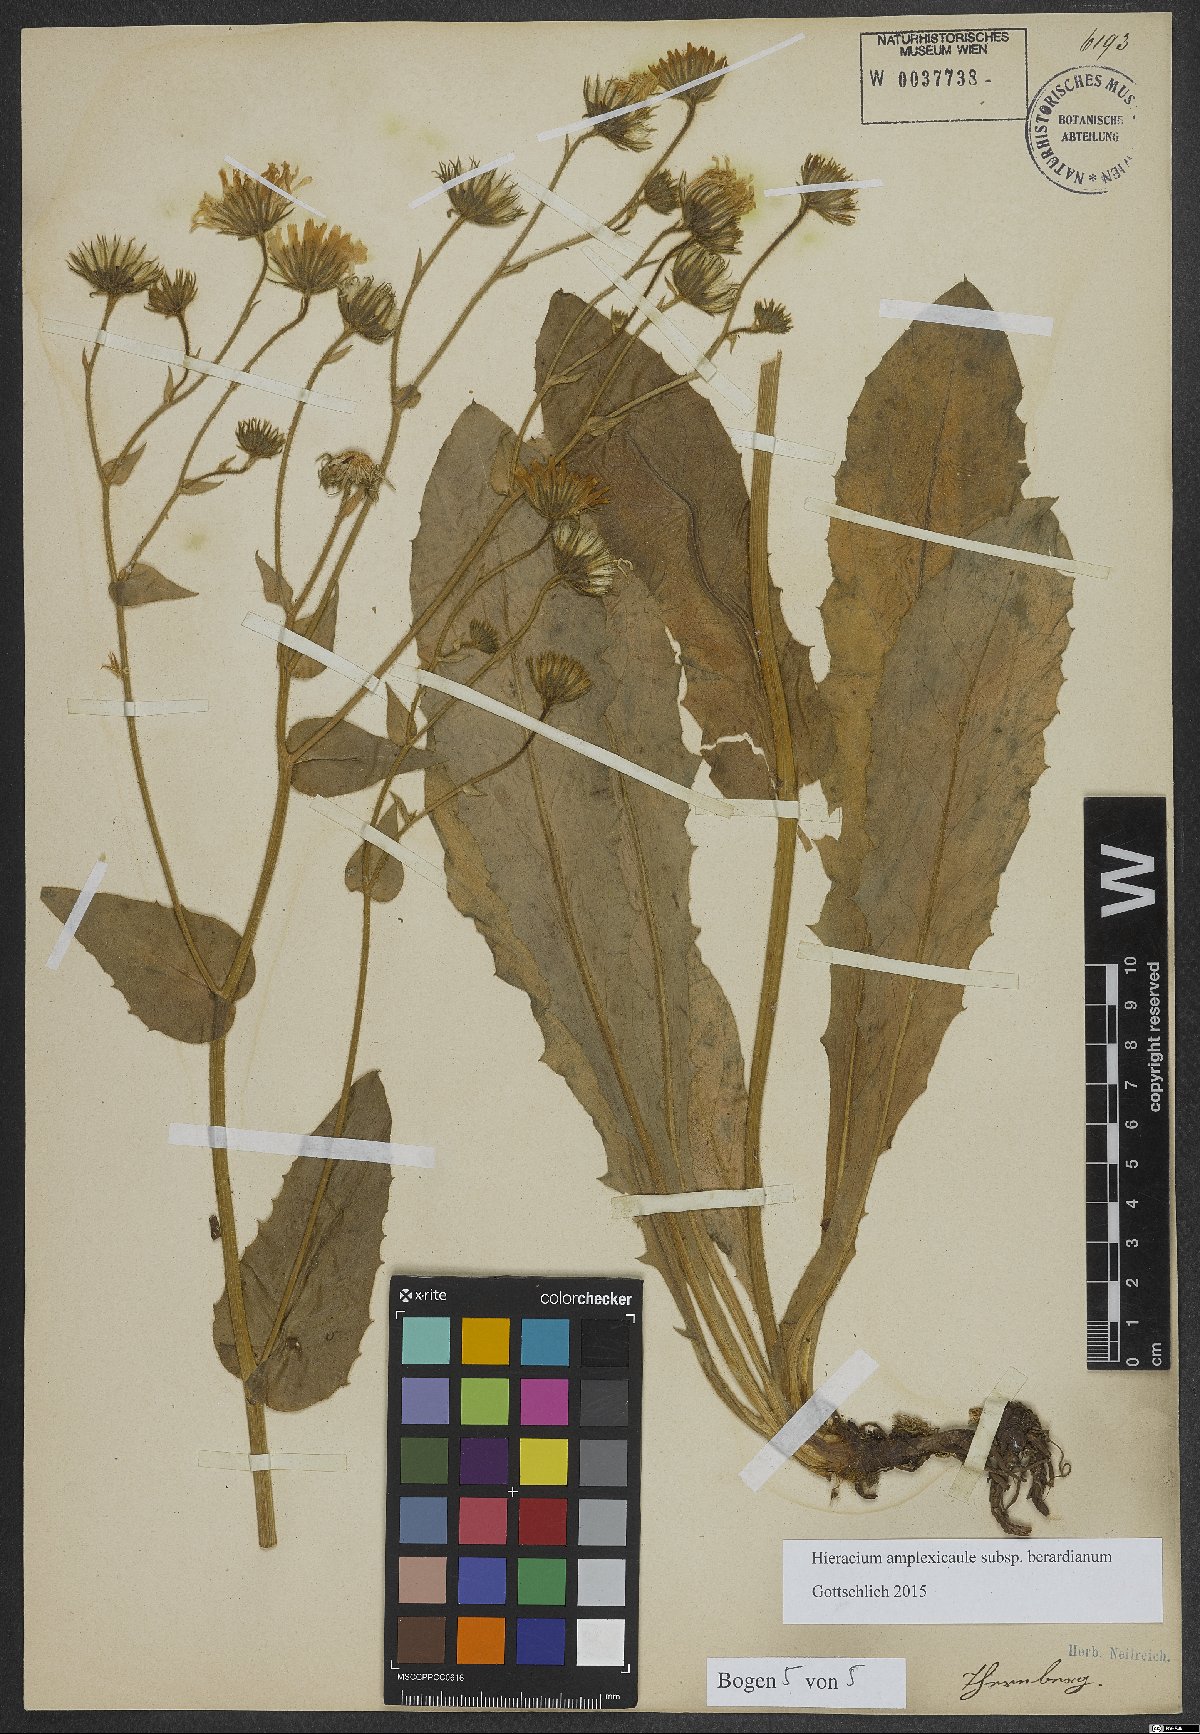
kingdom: Plantae
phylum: Tracheophyta
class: Magnoliopsida
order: Asterales
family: Asteraceae
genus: Hieracium
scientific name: Hieracium amplexicaule
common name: Sticky hawkweed
